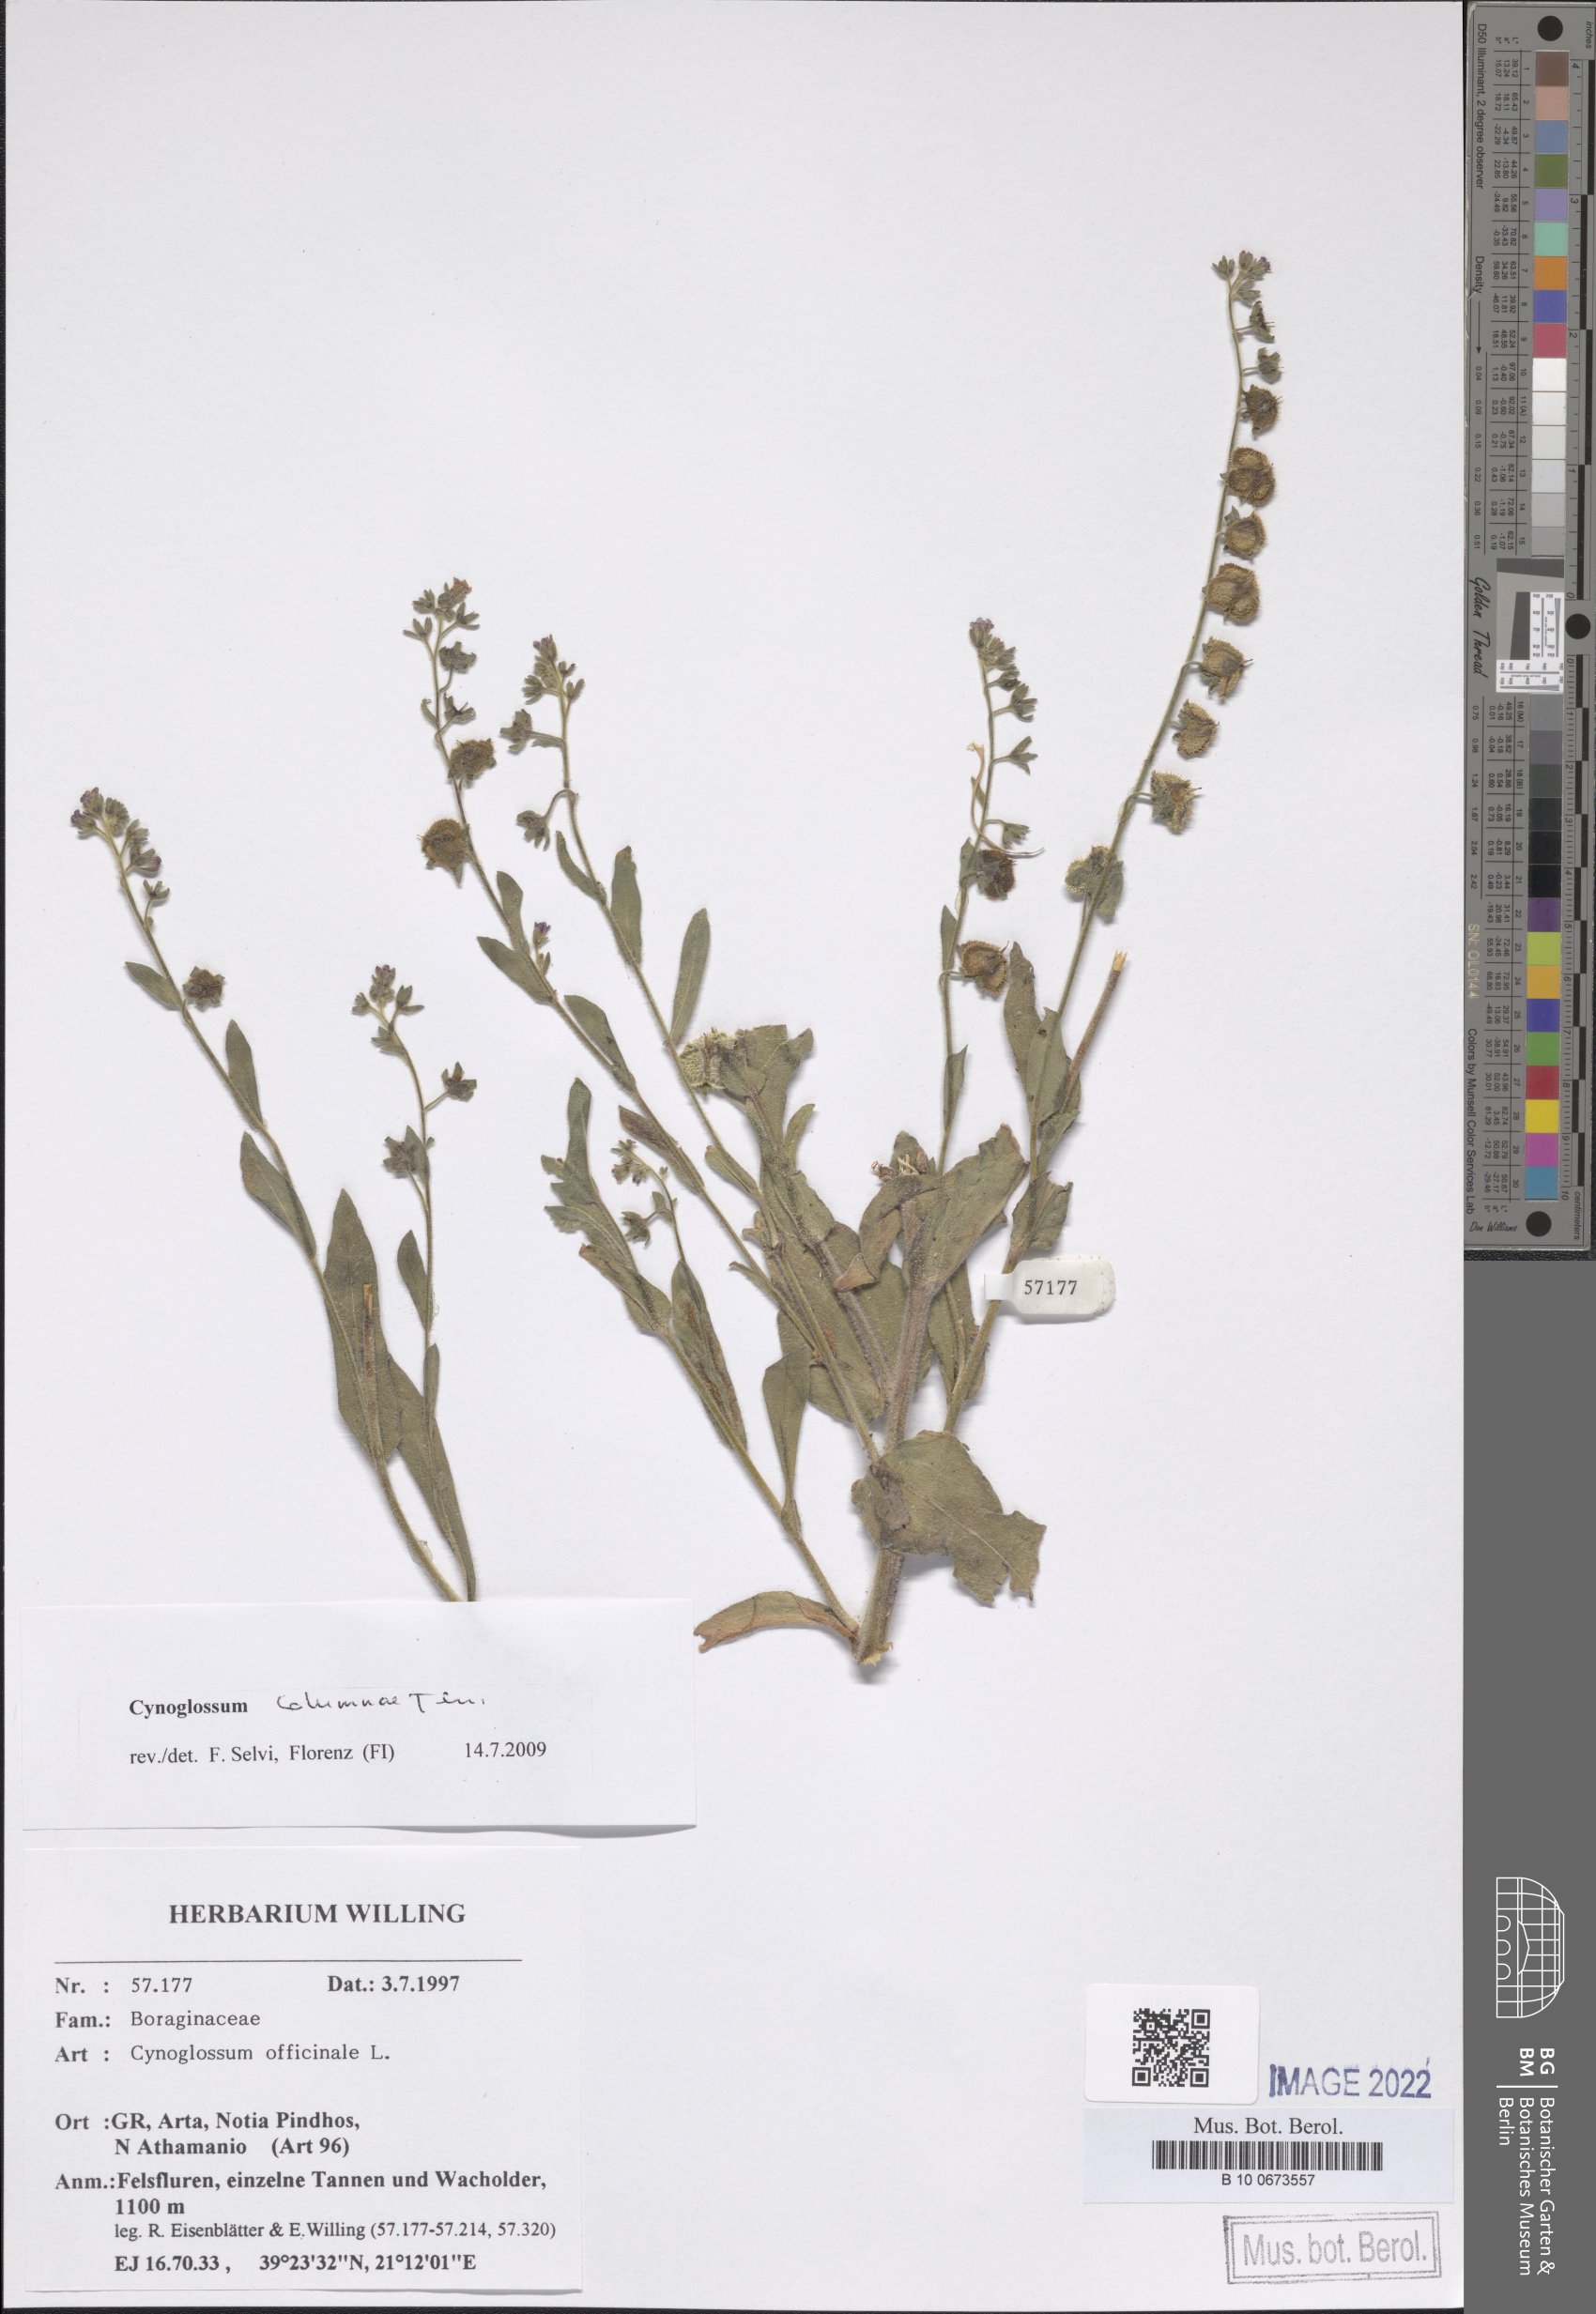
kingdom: Plantae
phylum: Tracheophyta
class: Magnoliopsida
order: Boraginales
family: Boraginaceae
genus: Rindera
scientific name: Rindera columnae
